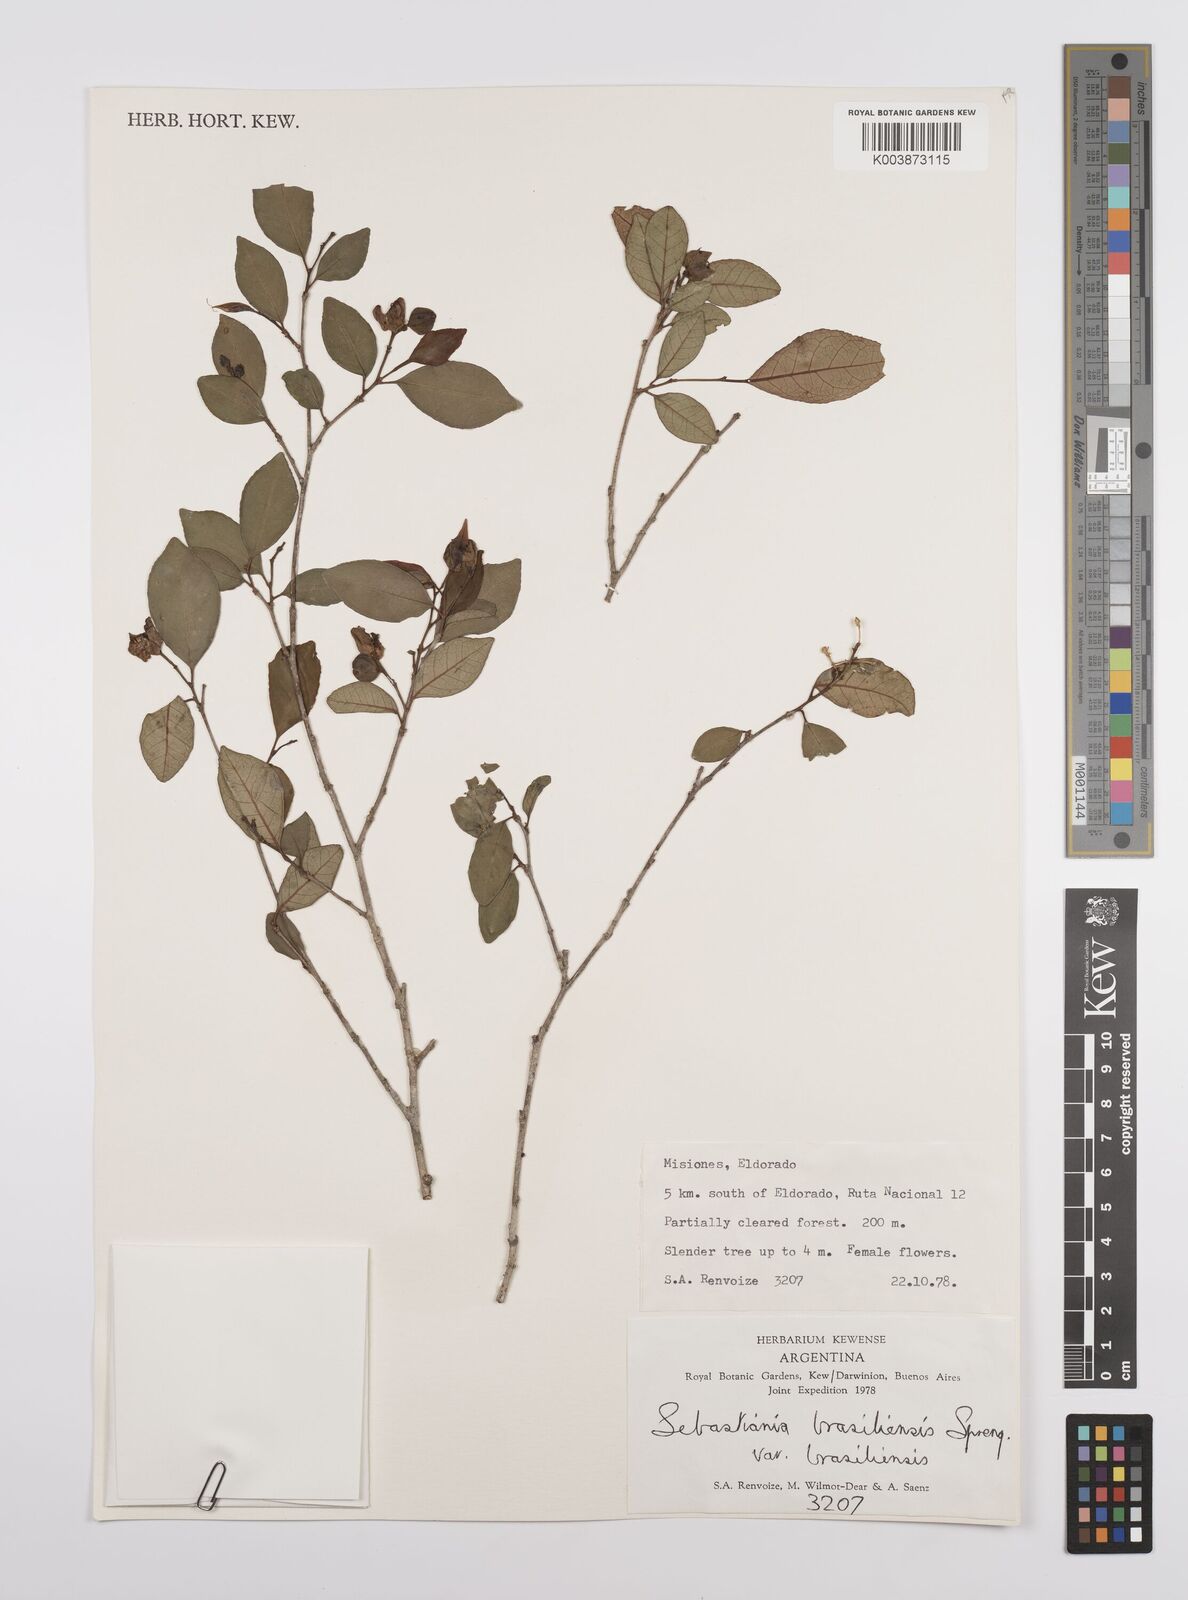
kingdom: Plantae
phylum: Tracheophyta
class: Magnoliopsida
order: Malpighiales
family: Euphorbiaceae
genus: Sebastiania
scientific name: Sebastiania brasiliensis
